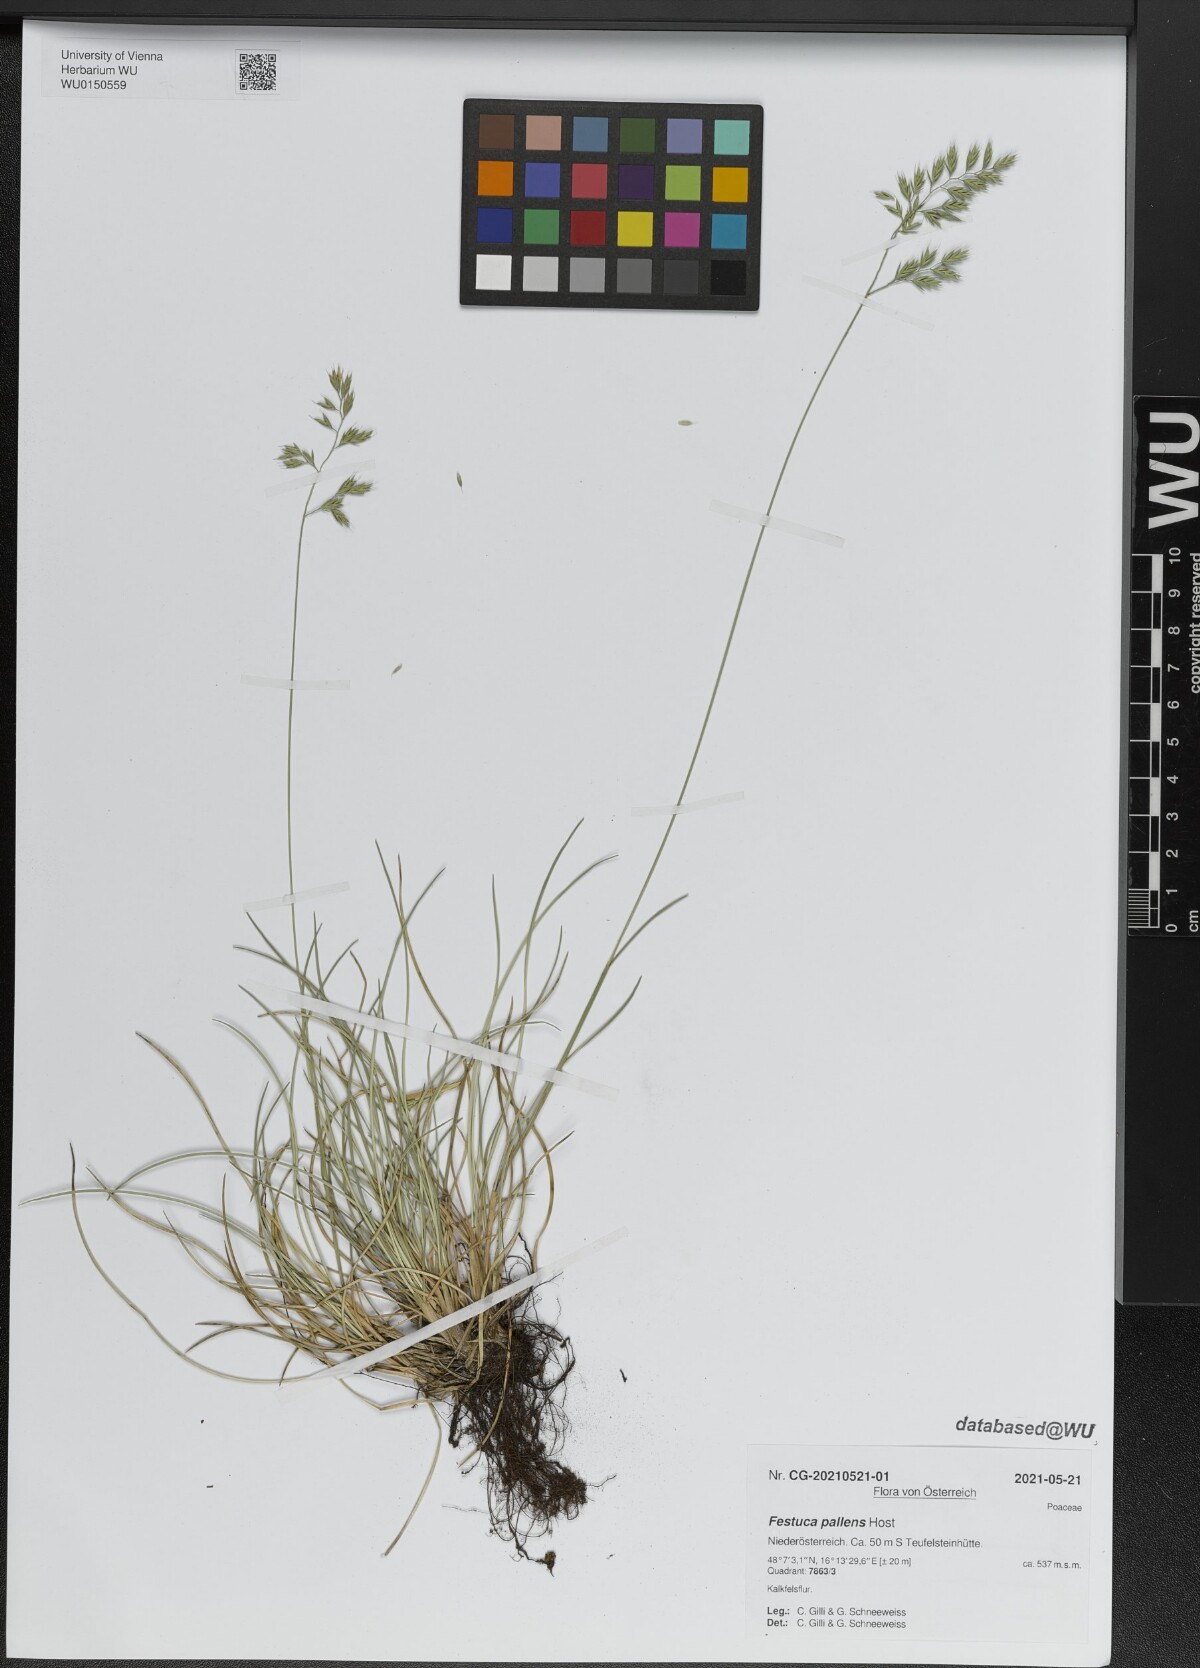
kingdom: Plantae
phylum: Tracheophyta
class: Liliopsida
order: Poales
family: Poaceae
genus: Festuca
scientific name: Festuca pallens
